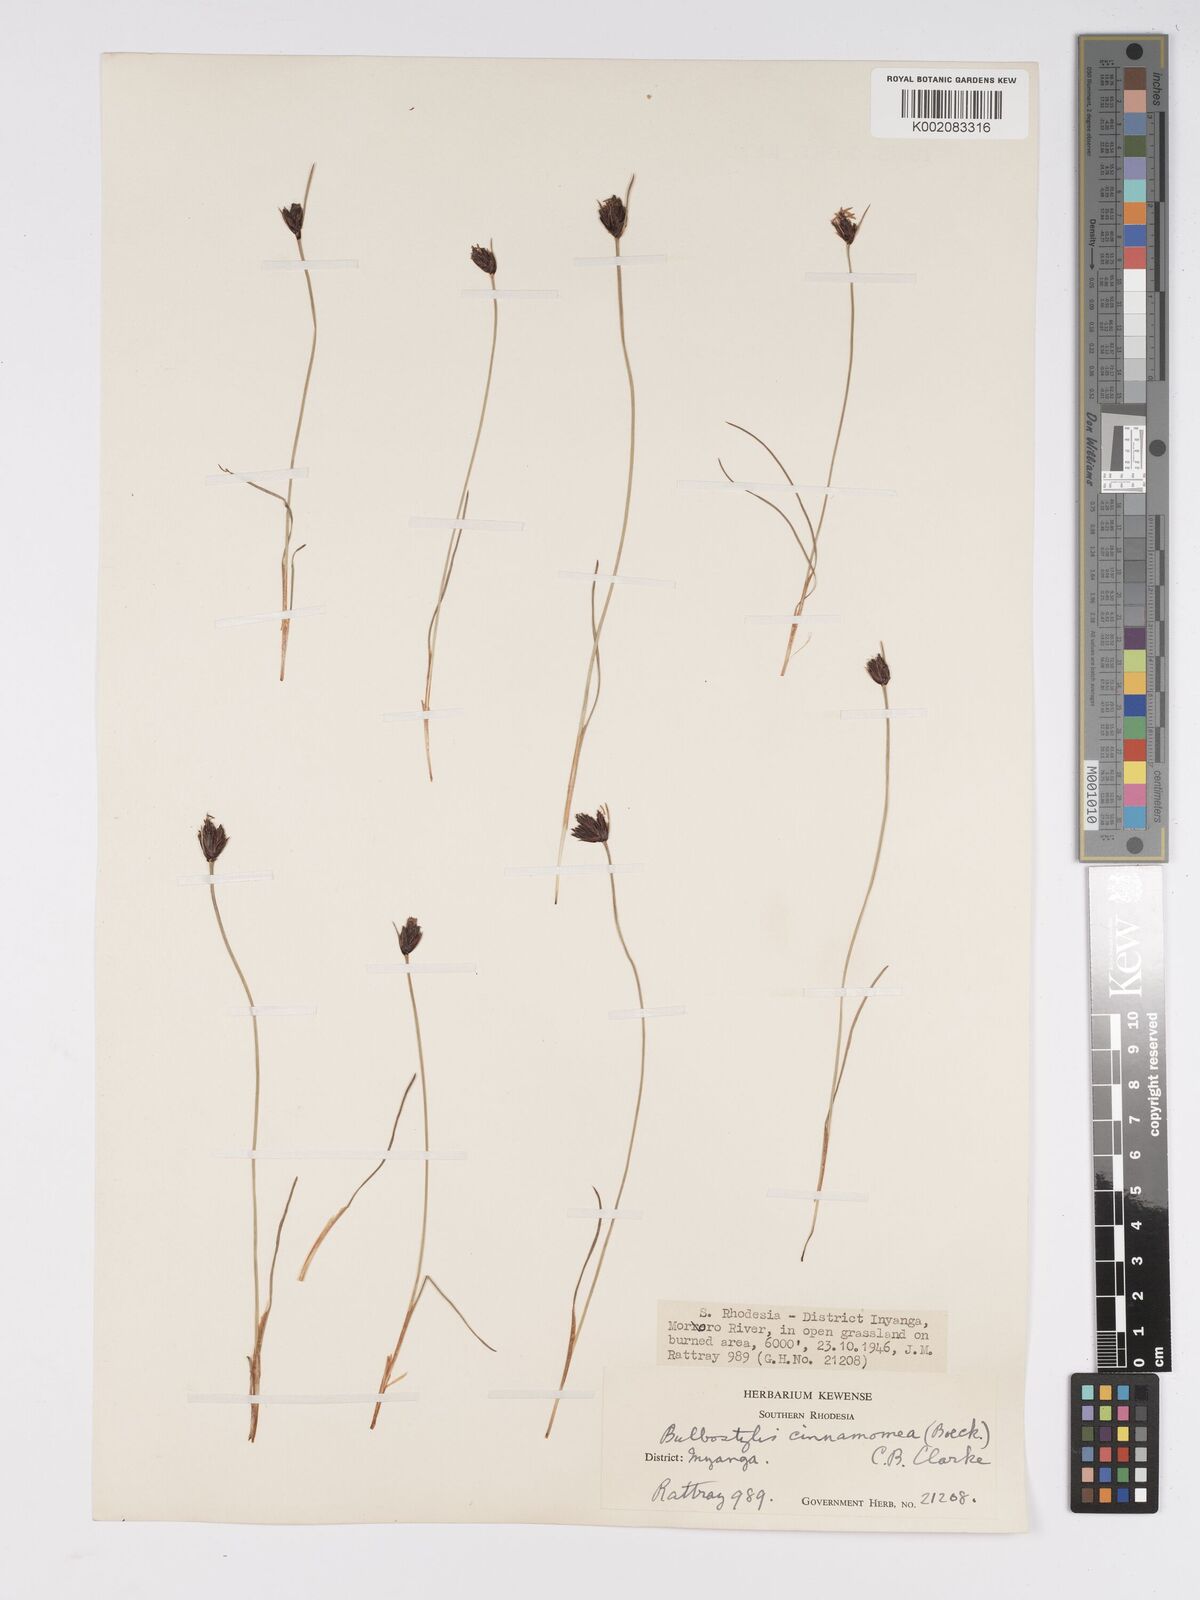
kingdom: Plantae
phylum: Tracheophyta
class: Liliopsida
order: Poales
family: Cyperaceae
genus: Bulbostylis
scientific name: Bulbostylis schoenoides
